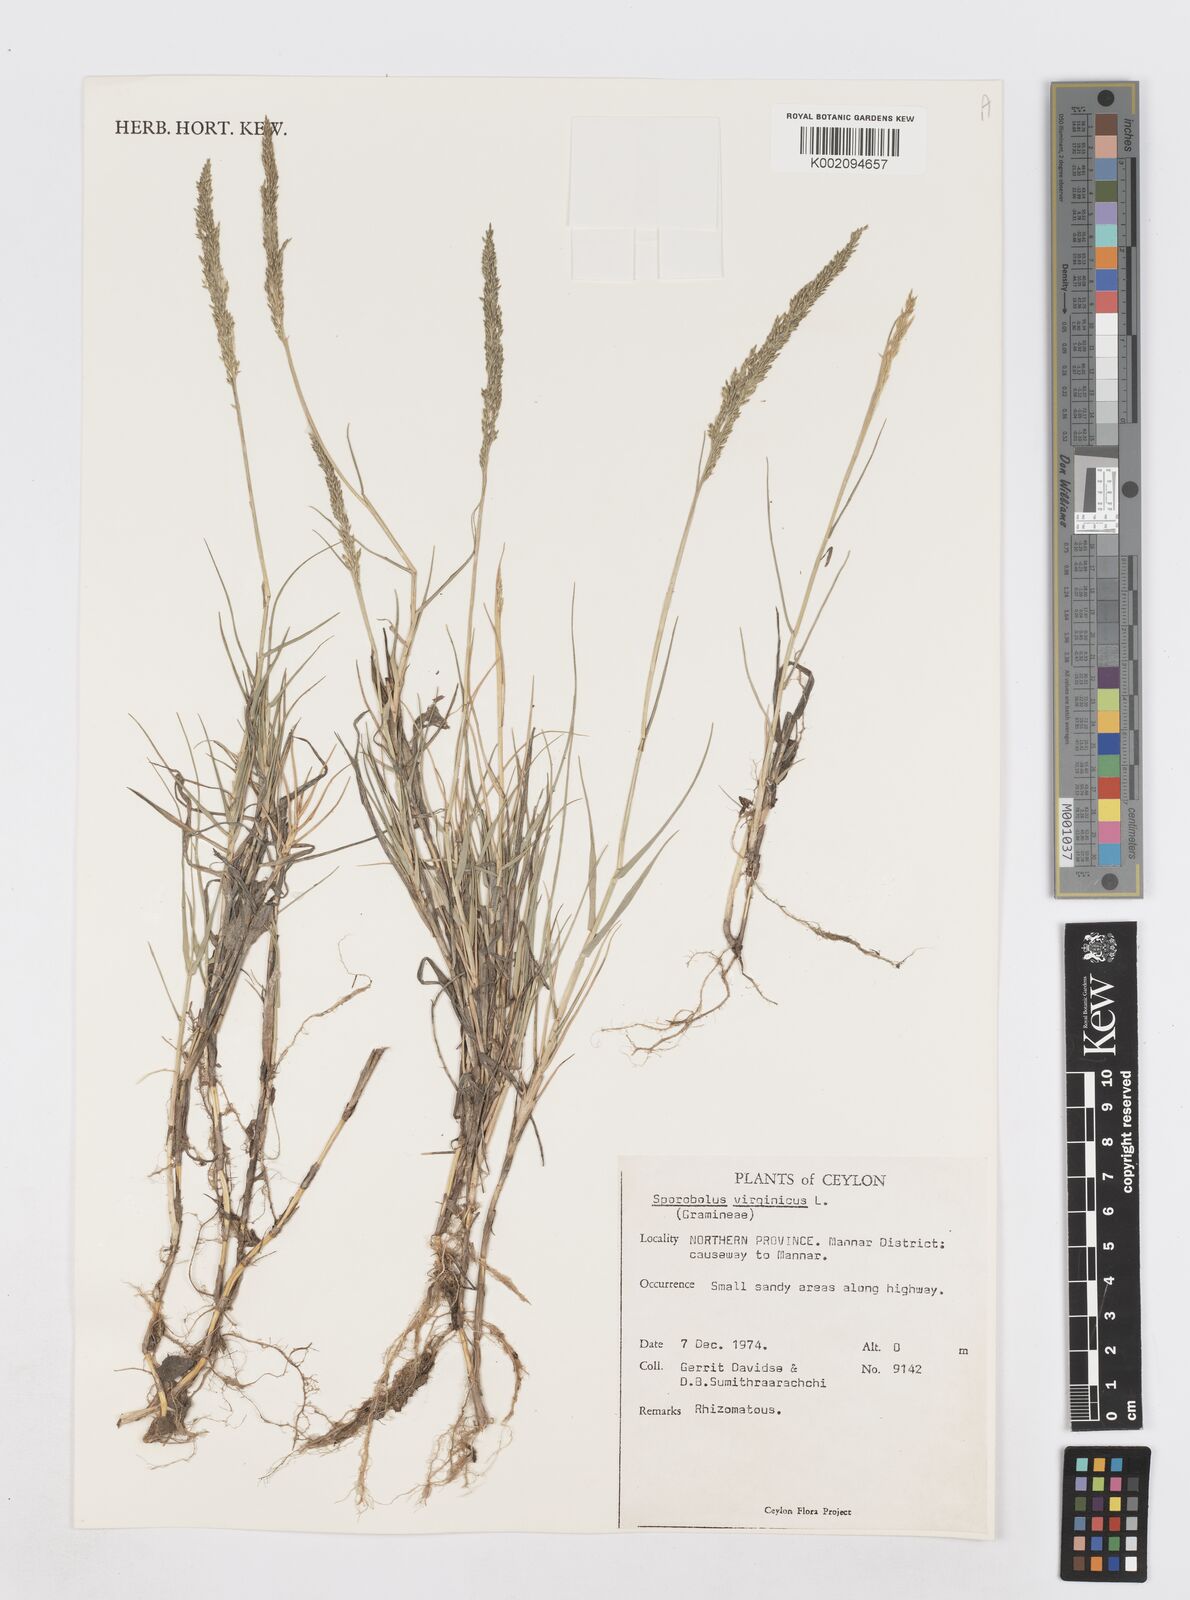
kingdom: Plantae
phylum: Tracheophyta
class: Liliopsida
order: Poales
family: Poaceae
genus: Sporobolus
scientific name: Sporobolus virginicus
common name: Beach dropseed
